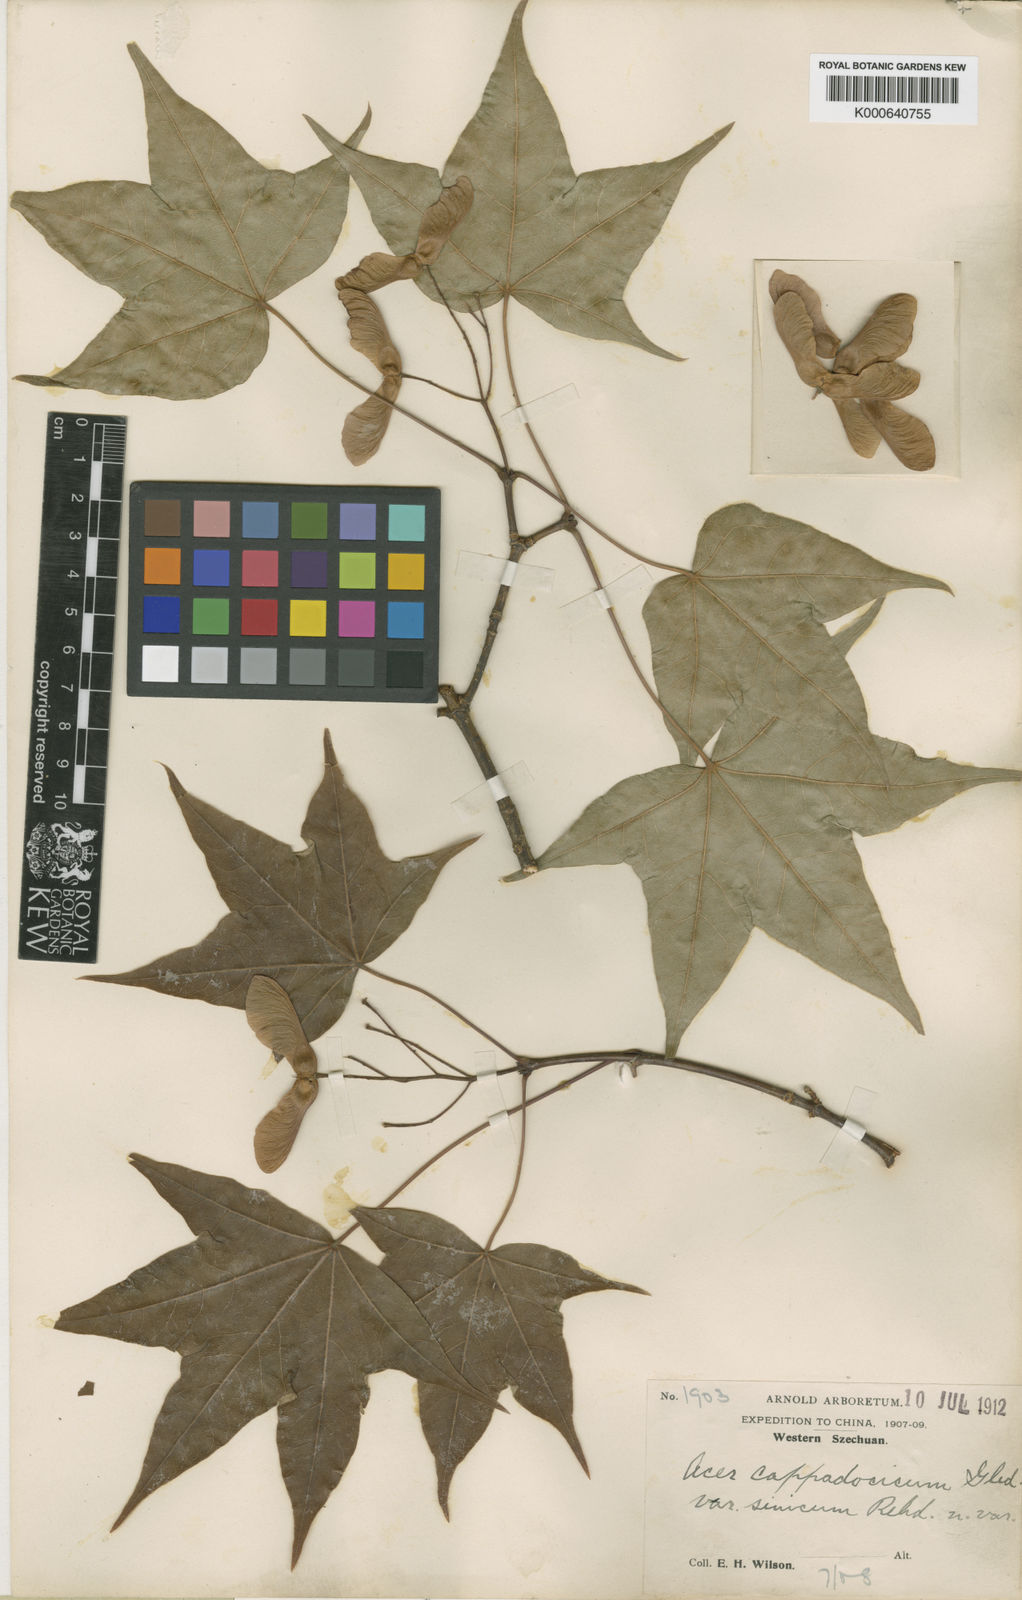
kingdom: Plantae
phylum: Tracheophyta
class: Magnoliopsida
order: Sapindales
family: Sapindaceae
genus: Acer
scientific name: Acer
